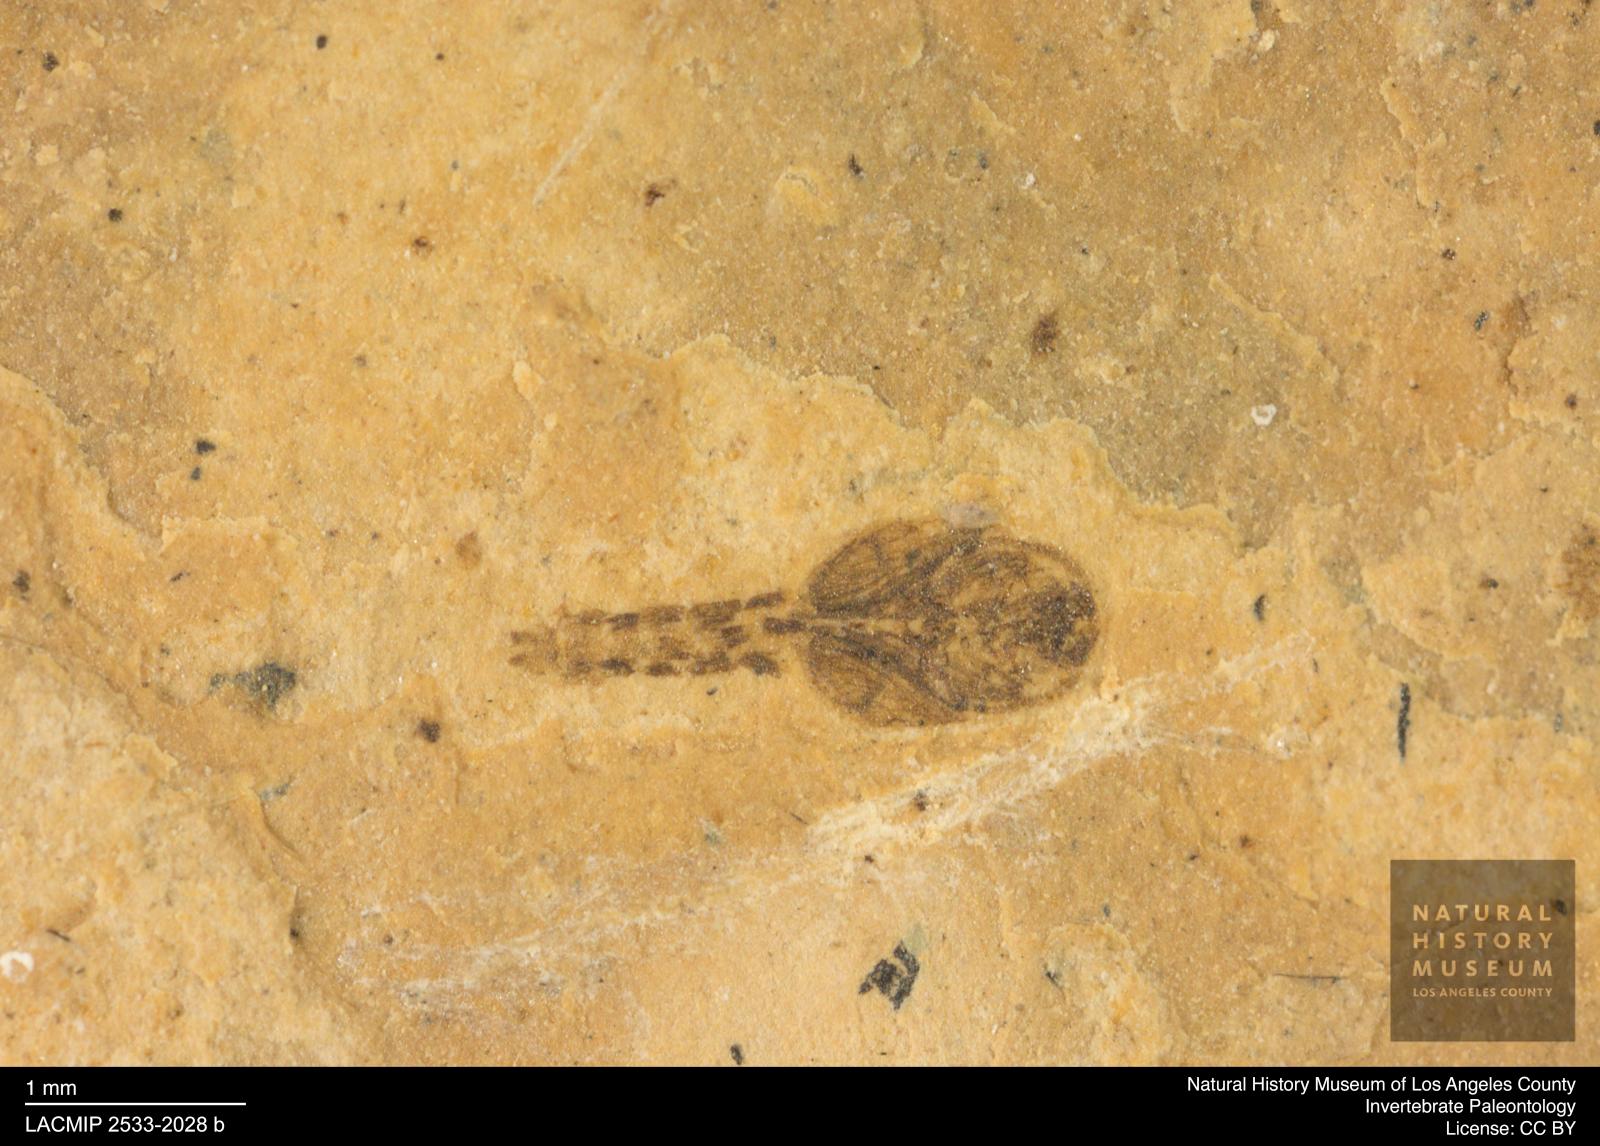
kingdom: Animalia
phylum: Arthropoda
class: Insecta
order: Diptera
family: Ceratopogonidae
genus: Ceratopogon
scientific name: Ceratopogon
